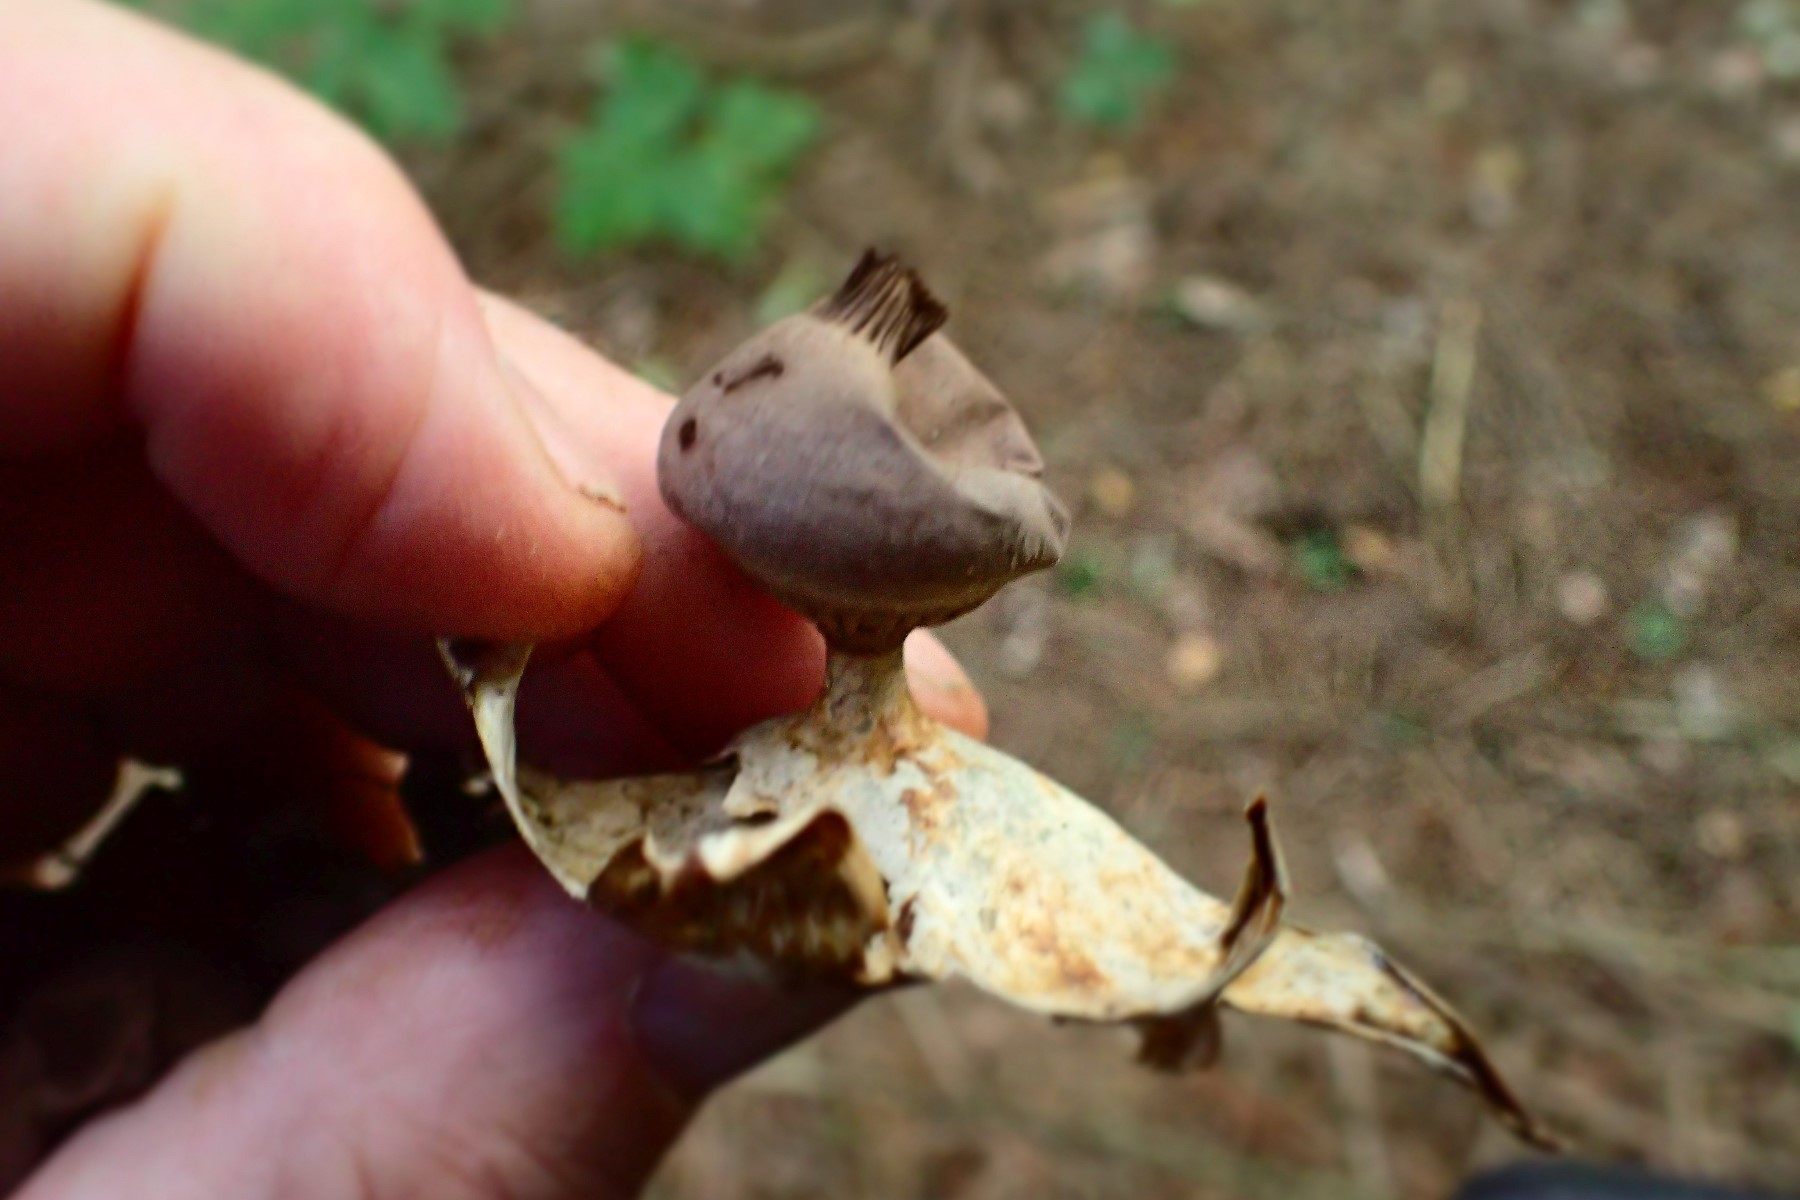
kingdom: Fungi
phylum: Basidiomycota
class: Agaricomycetes
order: Geastrales
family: Geastraceae
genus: Geastrum
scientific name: Geastrum striatum
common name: krave-stjernebold
